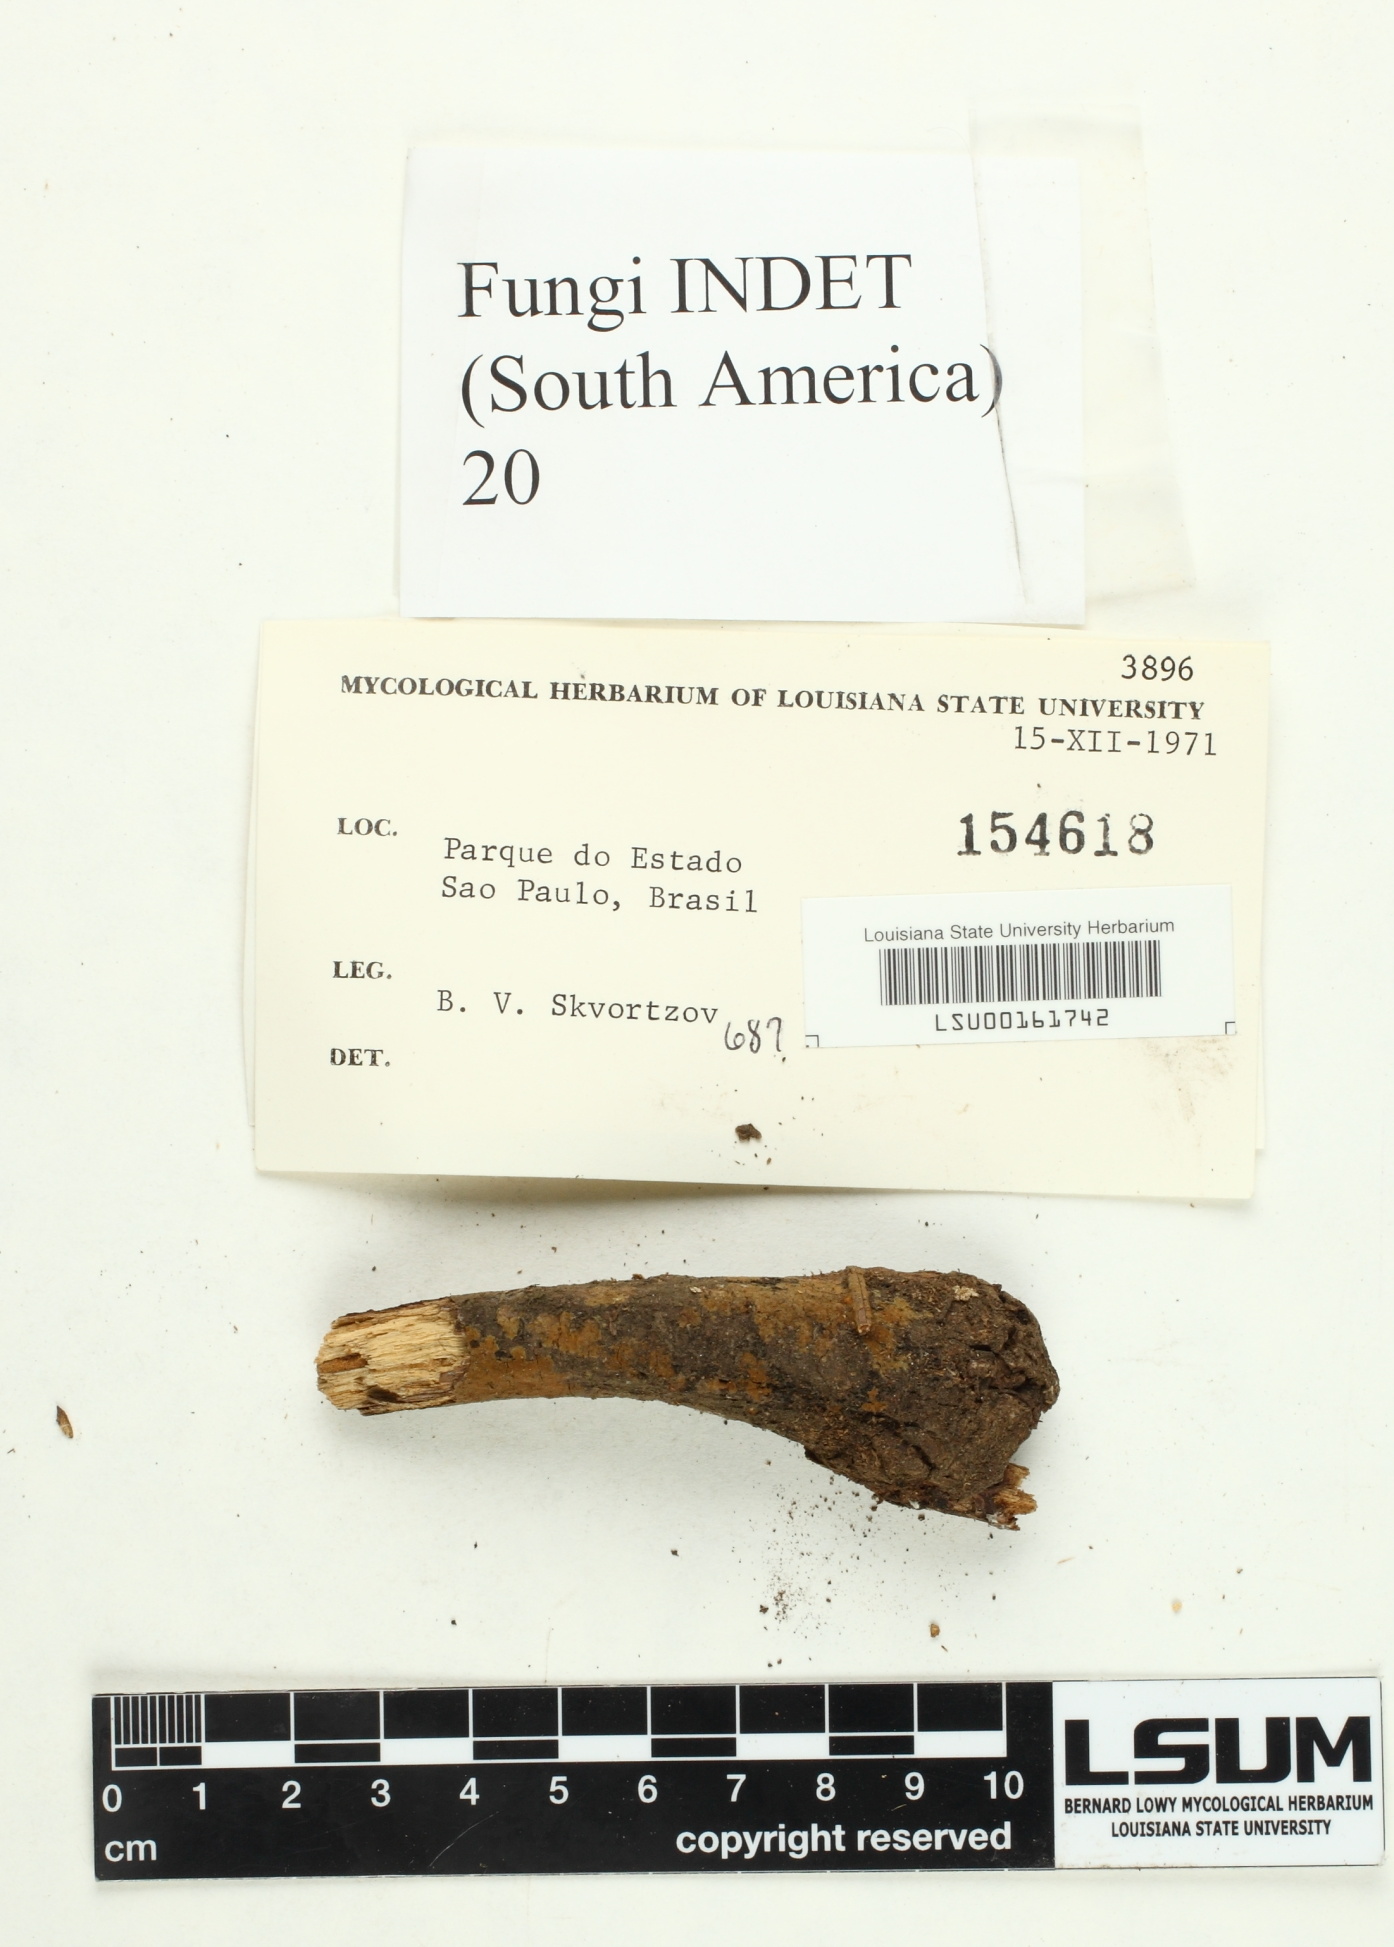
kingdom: Fungi
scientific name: Fungi
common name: Fungi
